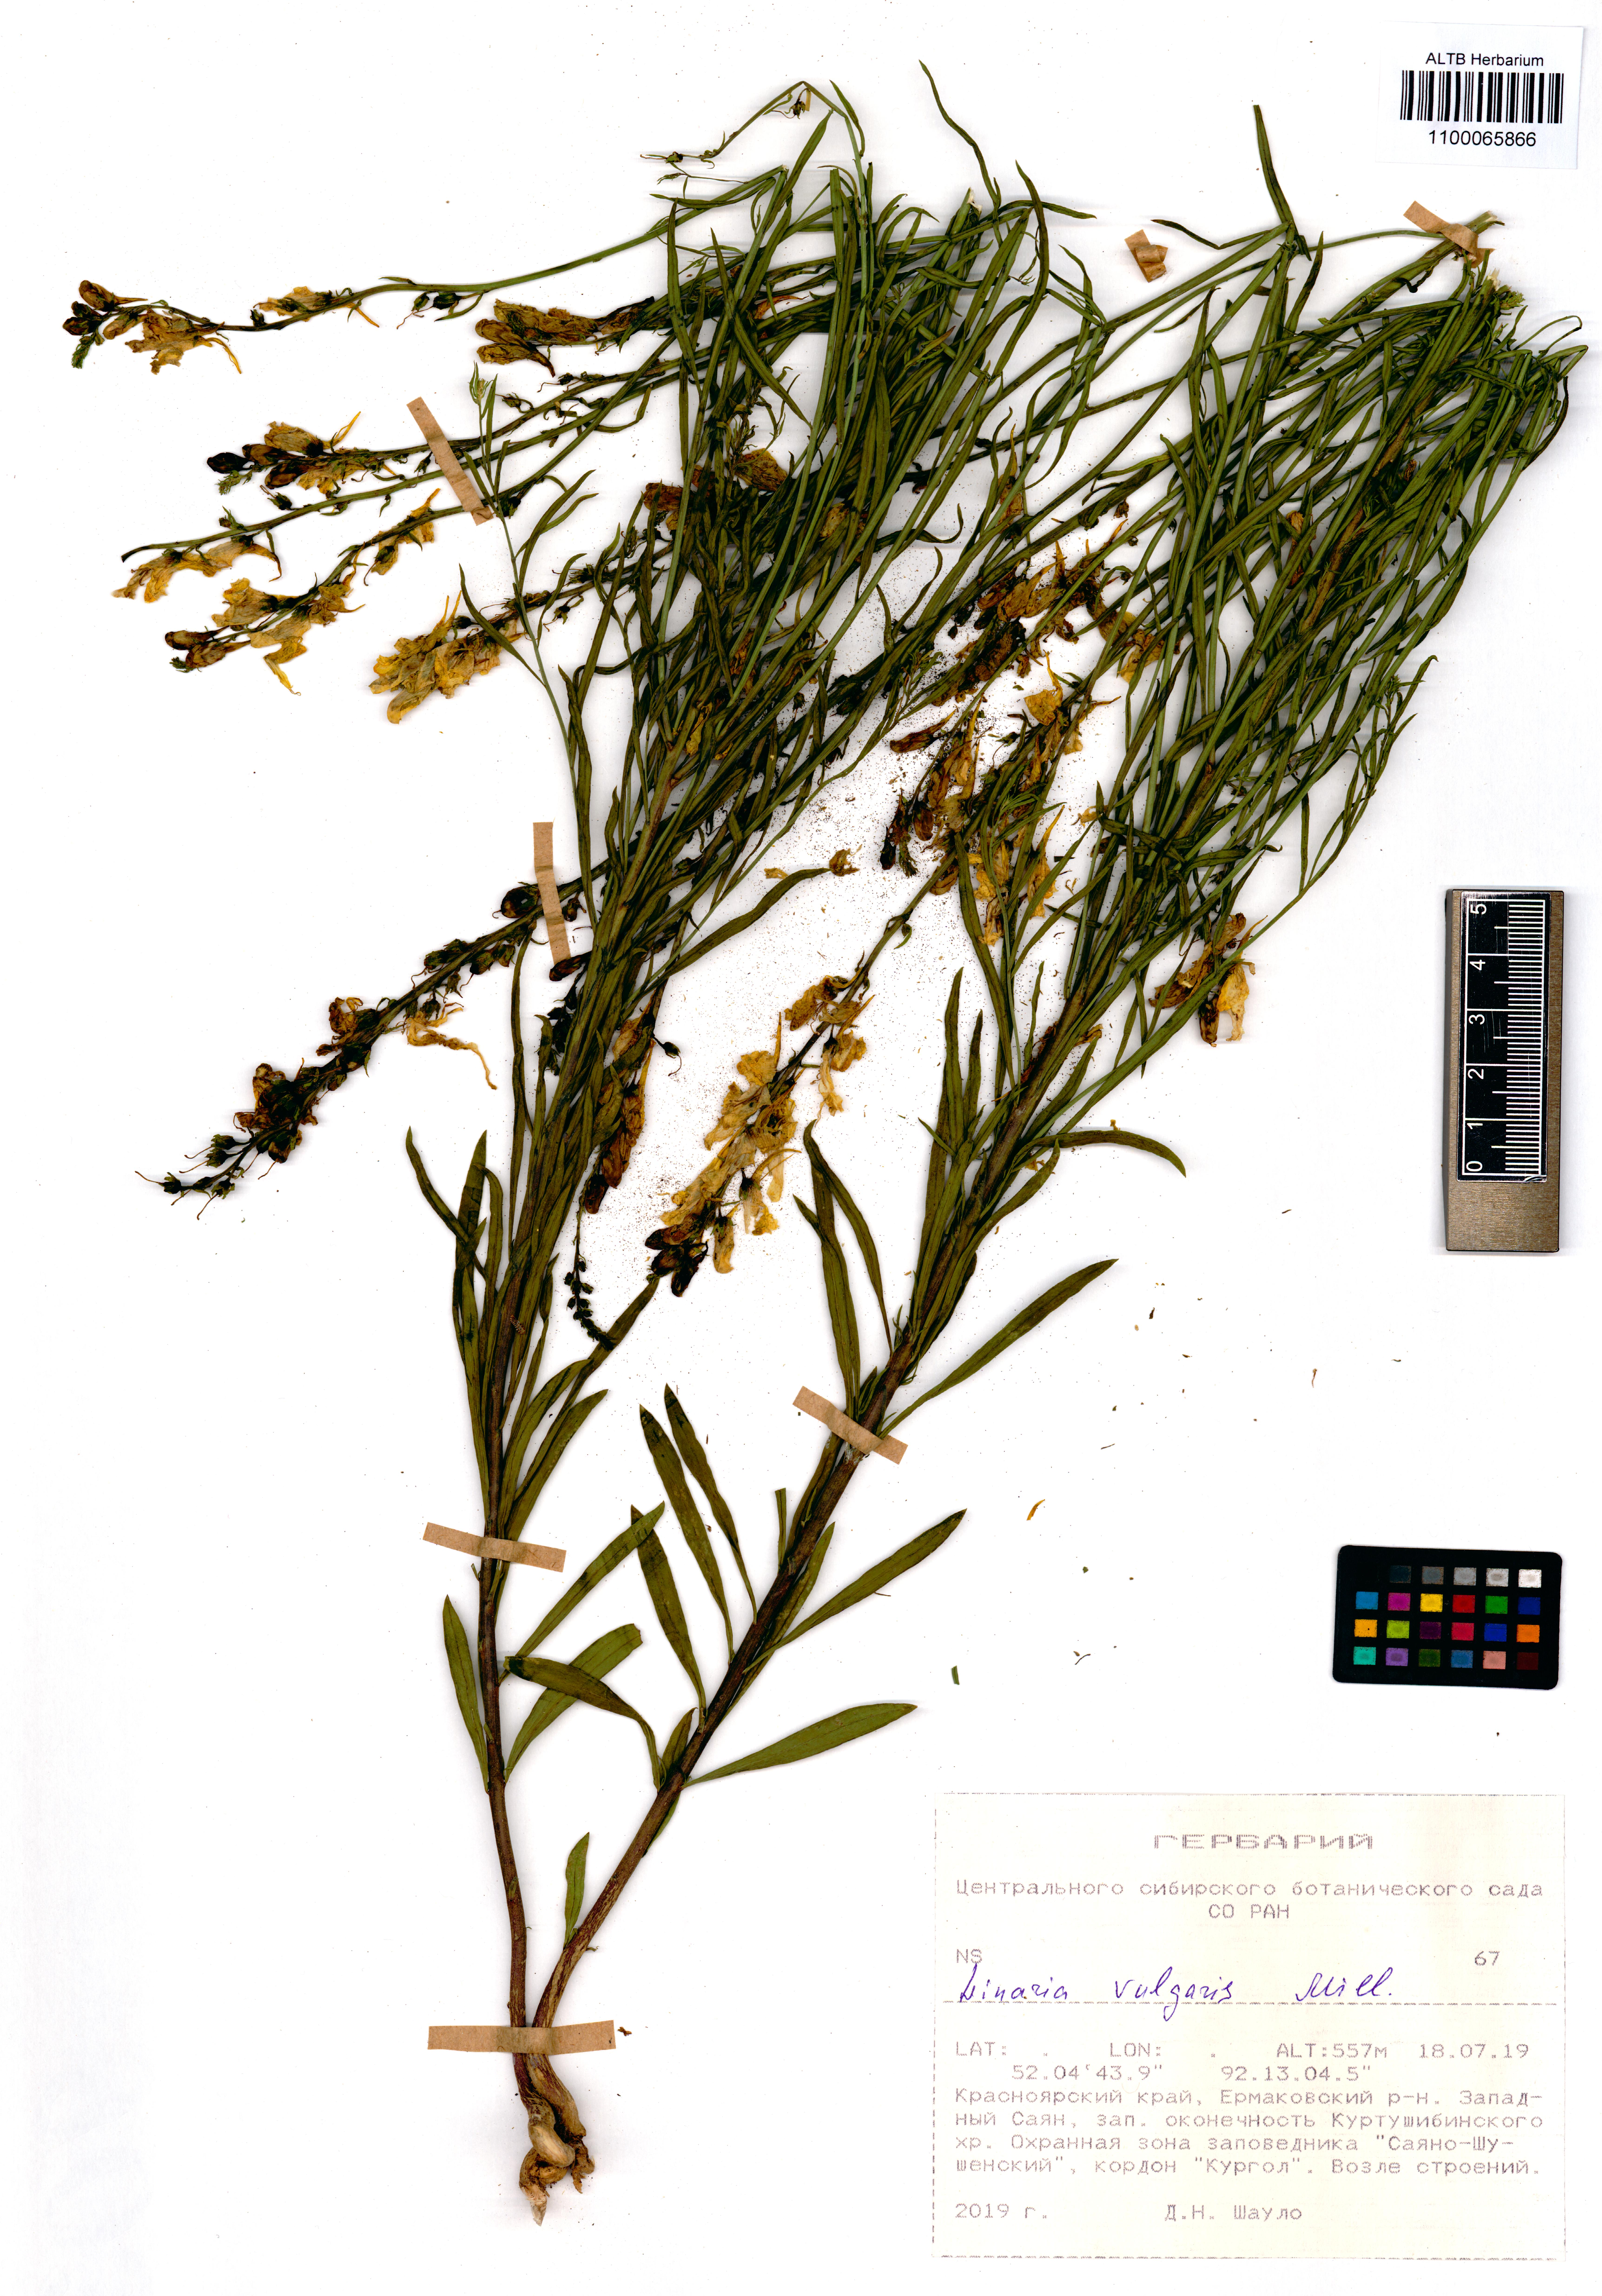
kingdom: Plantae
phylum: Tracheophyta
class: Magnoliopsida
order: Lamiales
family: Plantaginaceae
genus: Linaria
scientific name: Linaria vulgaris
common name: Butter and eggs
